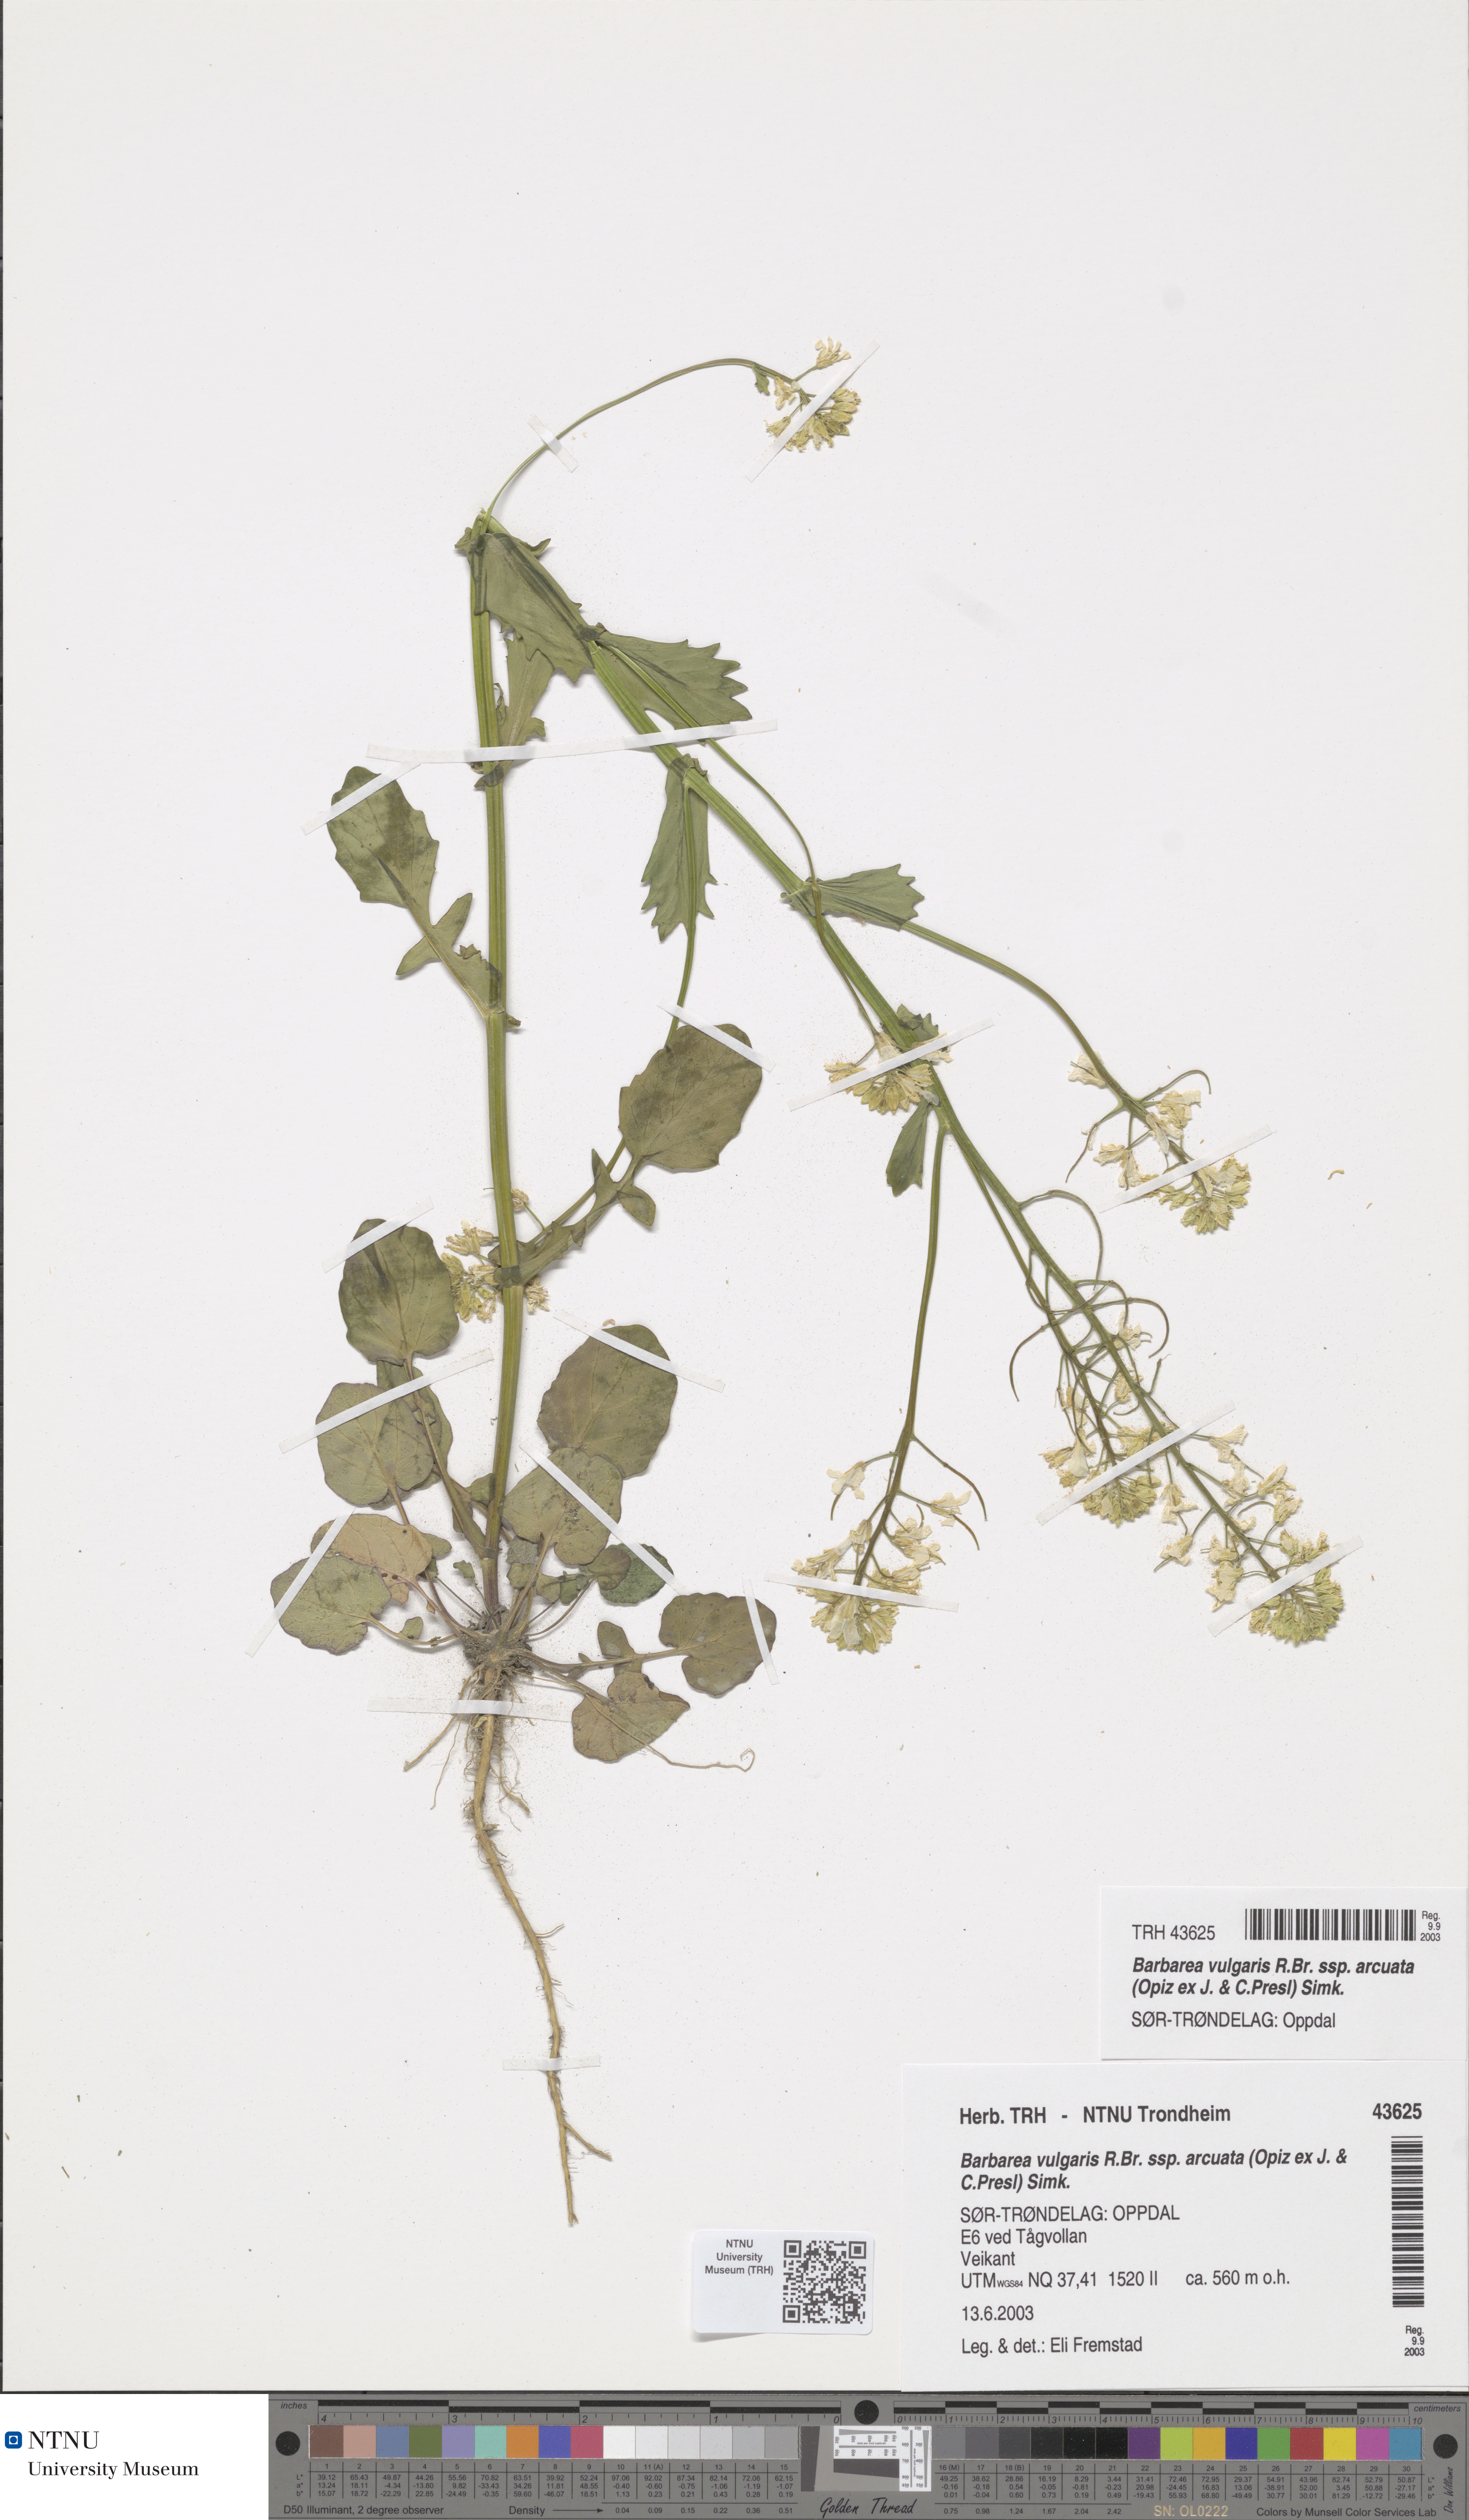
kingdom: Plantae
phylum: Tracheophyta
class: Magnoliopsida
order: Brassicales
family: Brassicaceae
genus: Barbarea
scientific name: Barbarea vulgaris
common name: Cressy-greens
